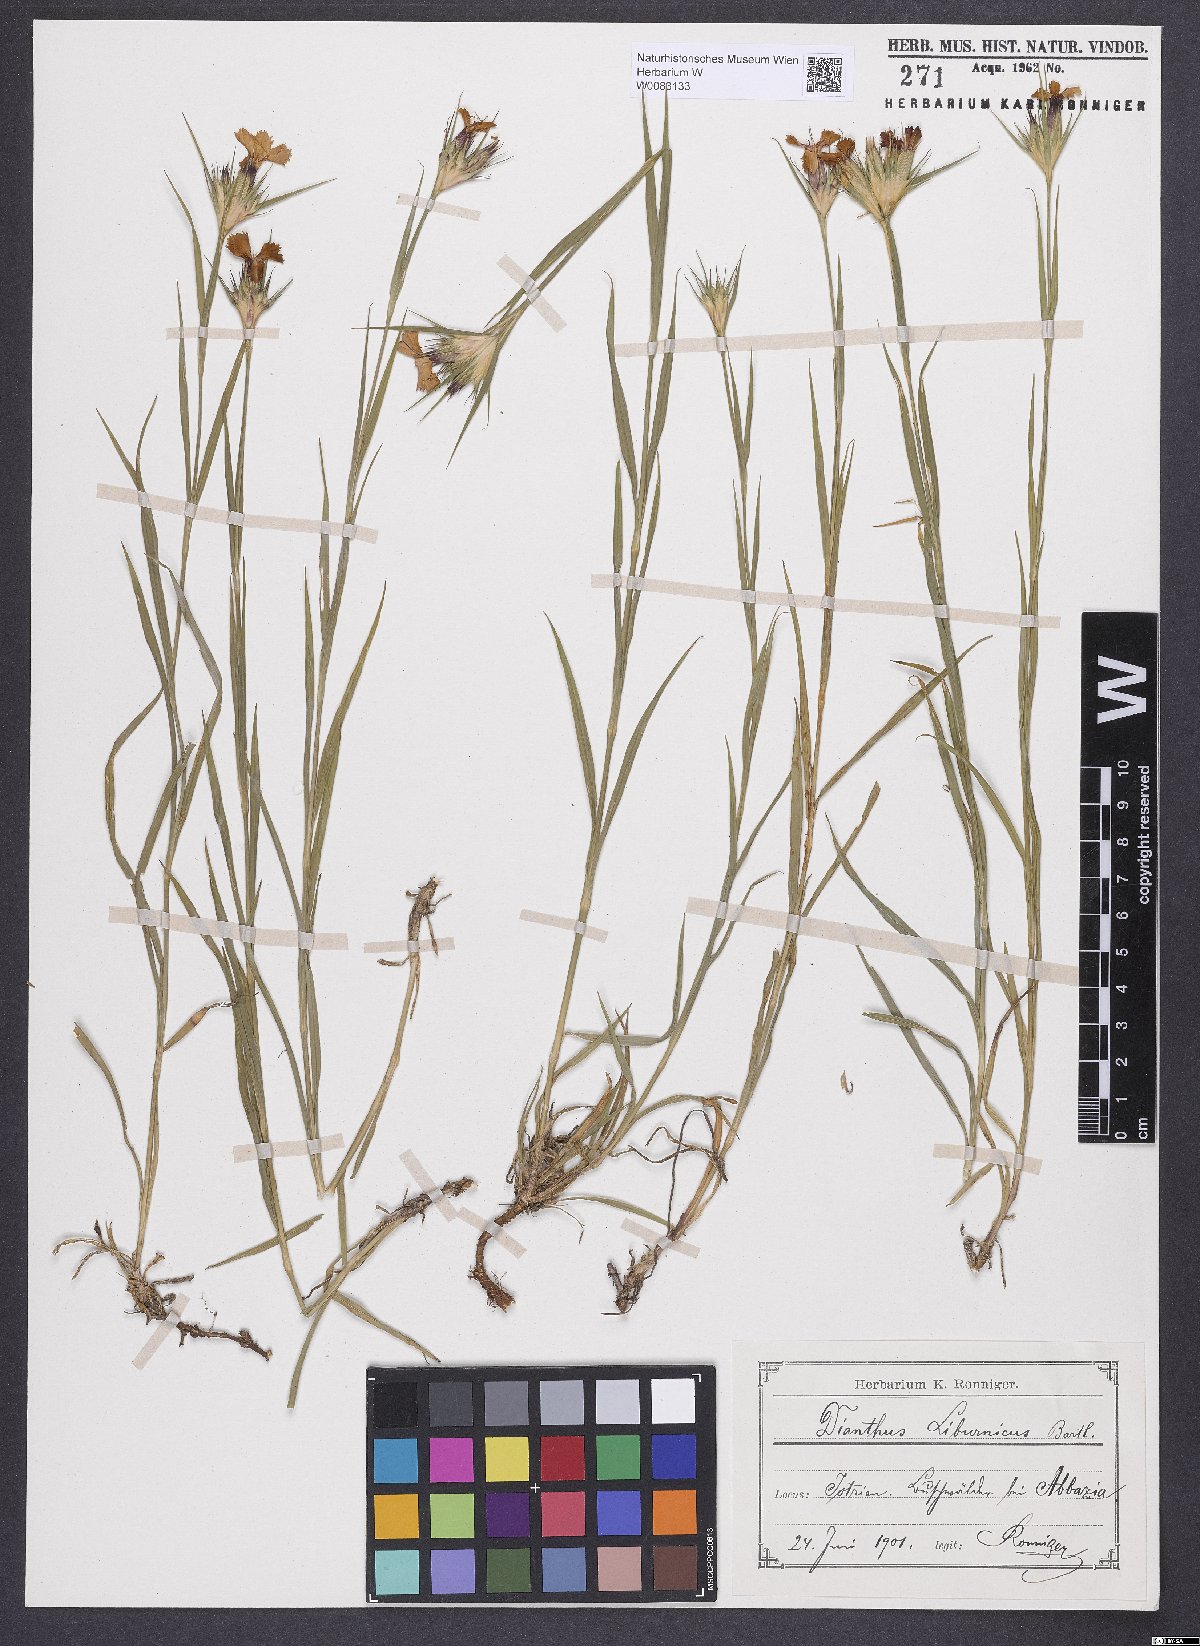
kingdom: Plantae
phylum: Tracheophyta
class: Magnoliopsida
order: Caryophyllales
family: Caryophyllaceae
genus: Dianthus
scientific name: Dianthus balbisii
